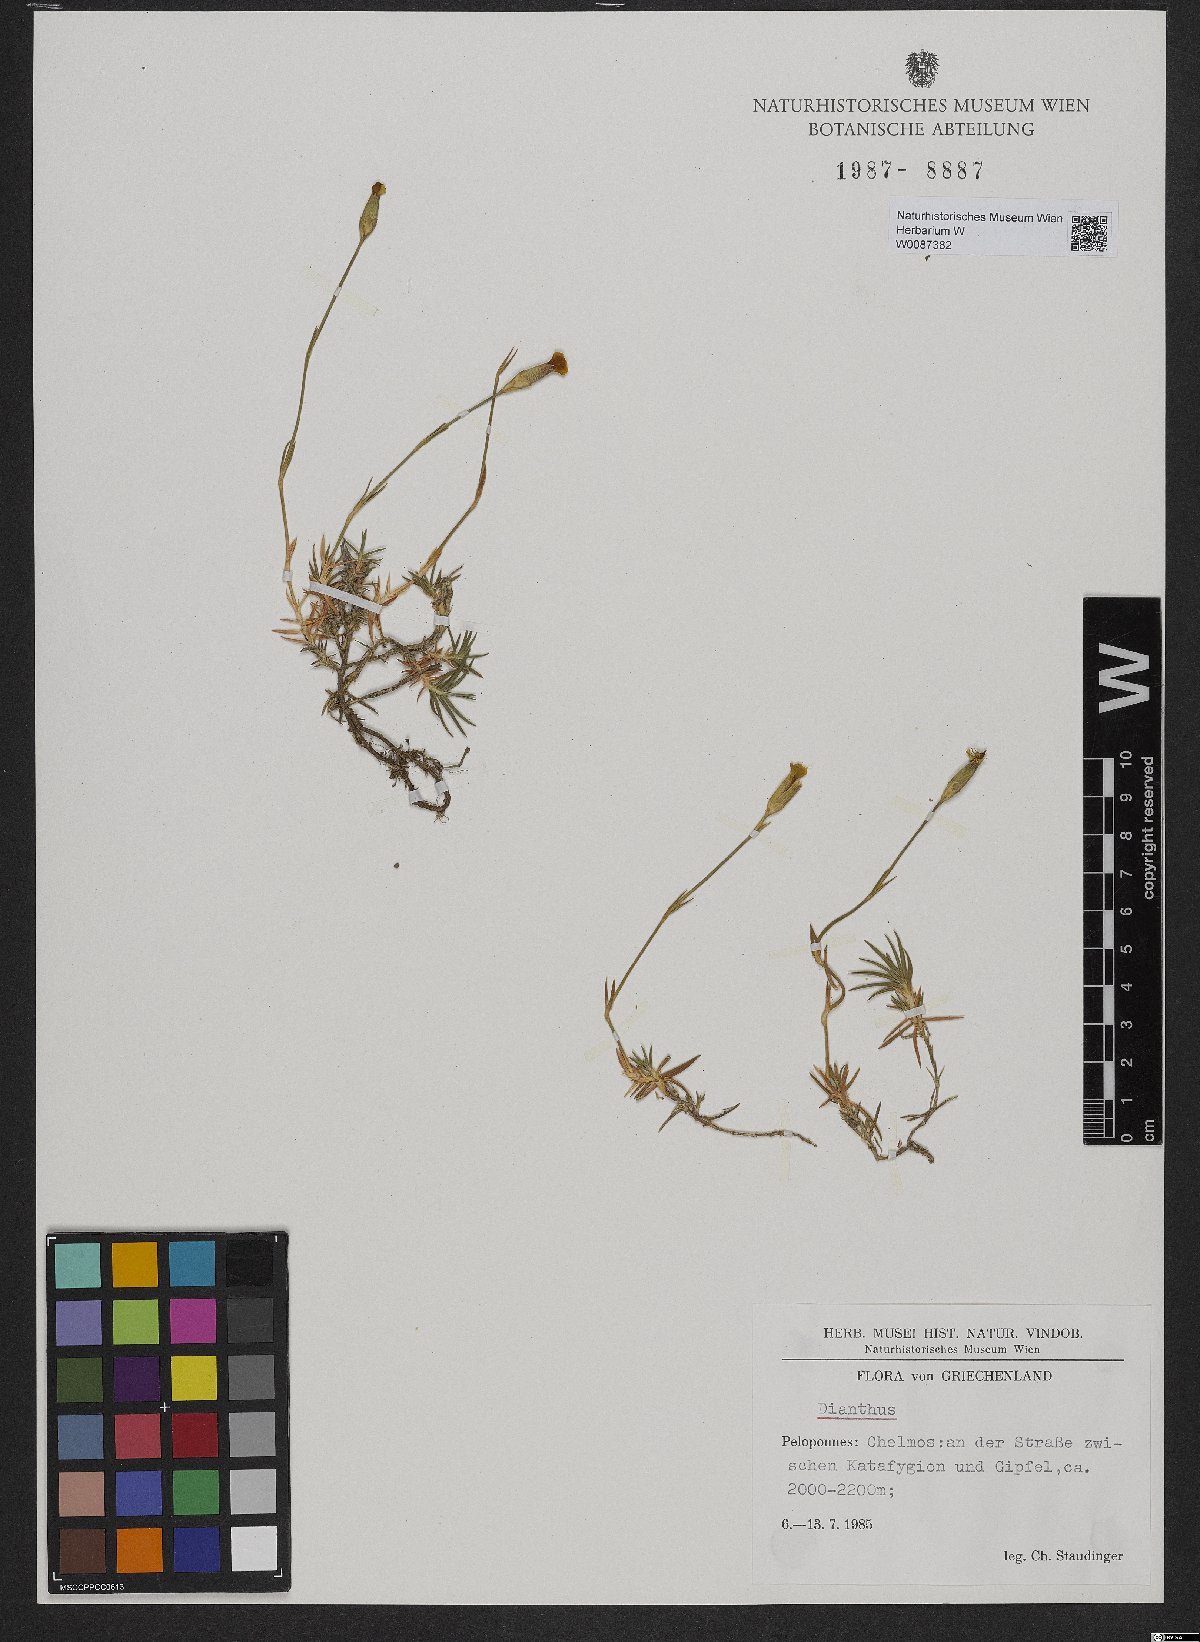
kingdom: Plantae
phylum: Tracheophyta
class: Magnoliopsida
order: Caryophyllales
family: Caryophyllaceae
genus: Dianthus
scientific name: Dianthus
